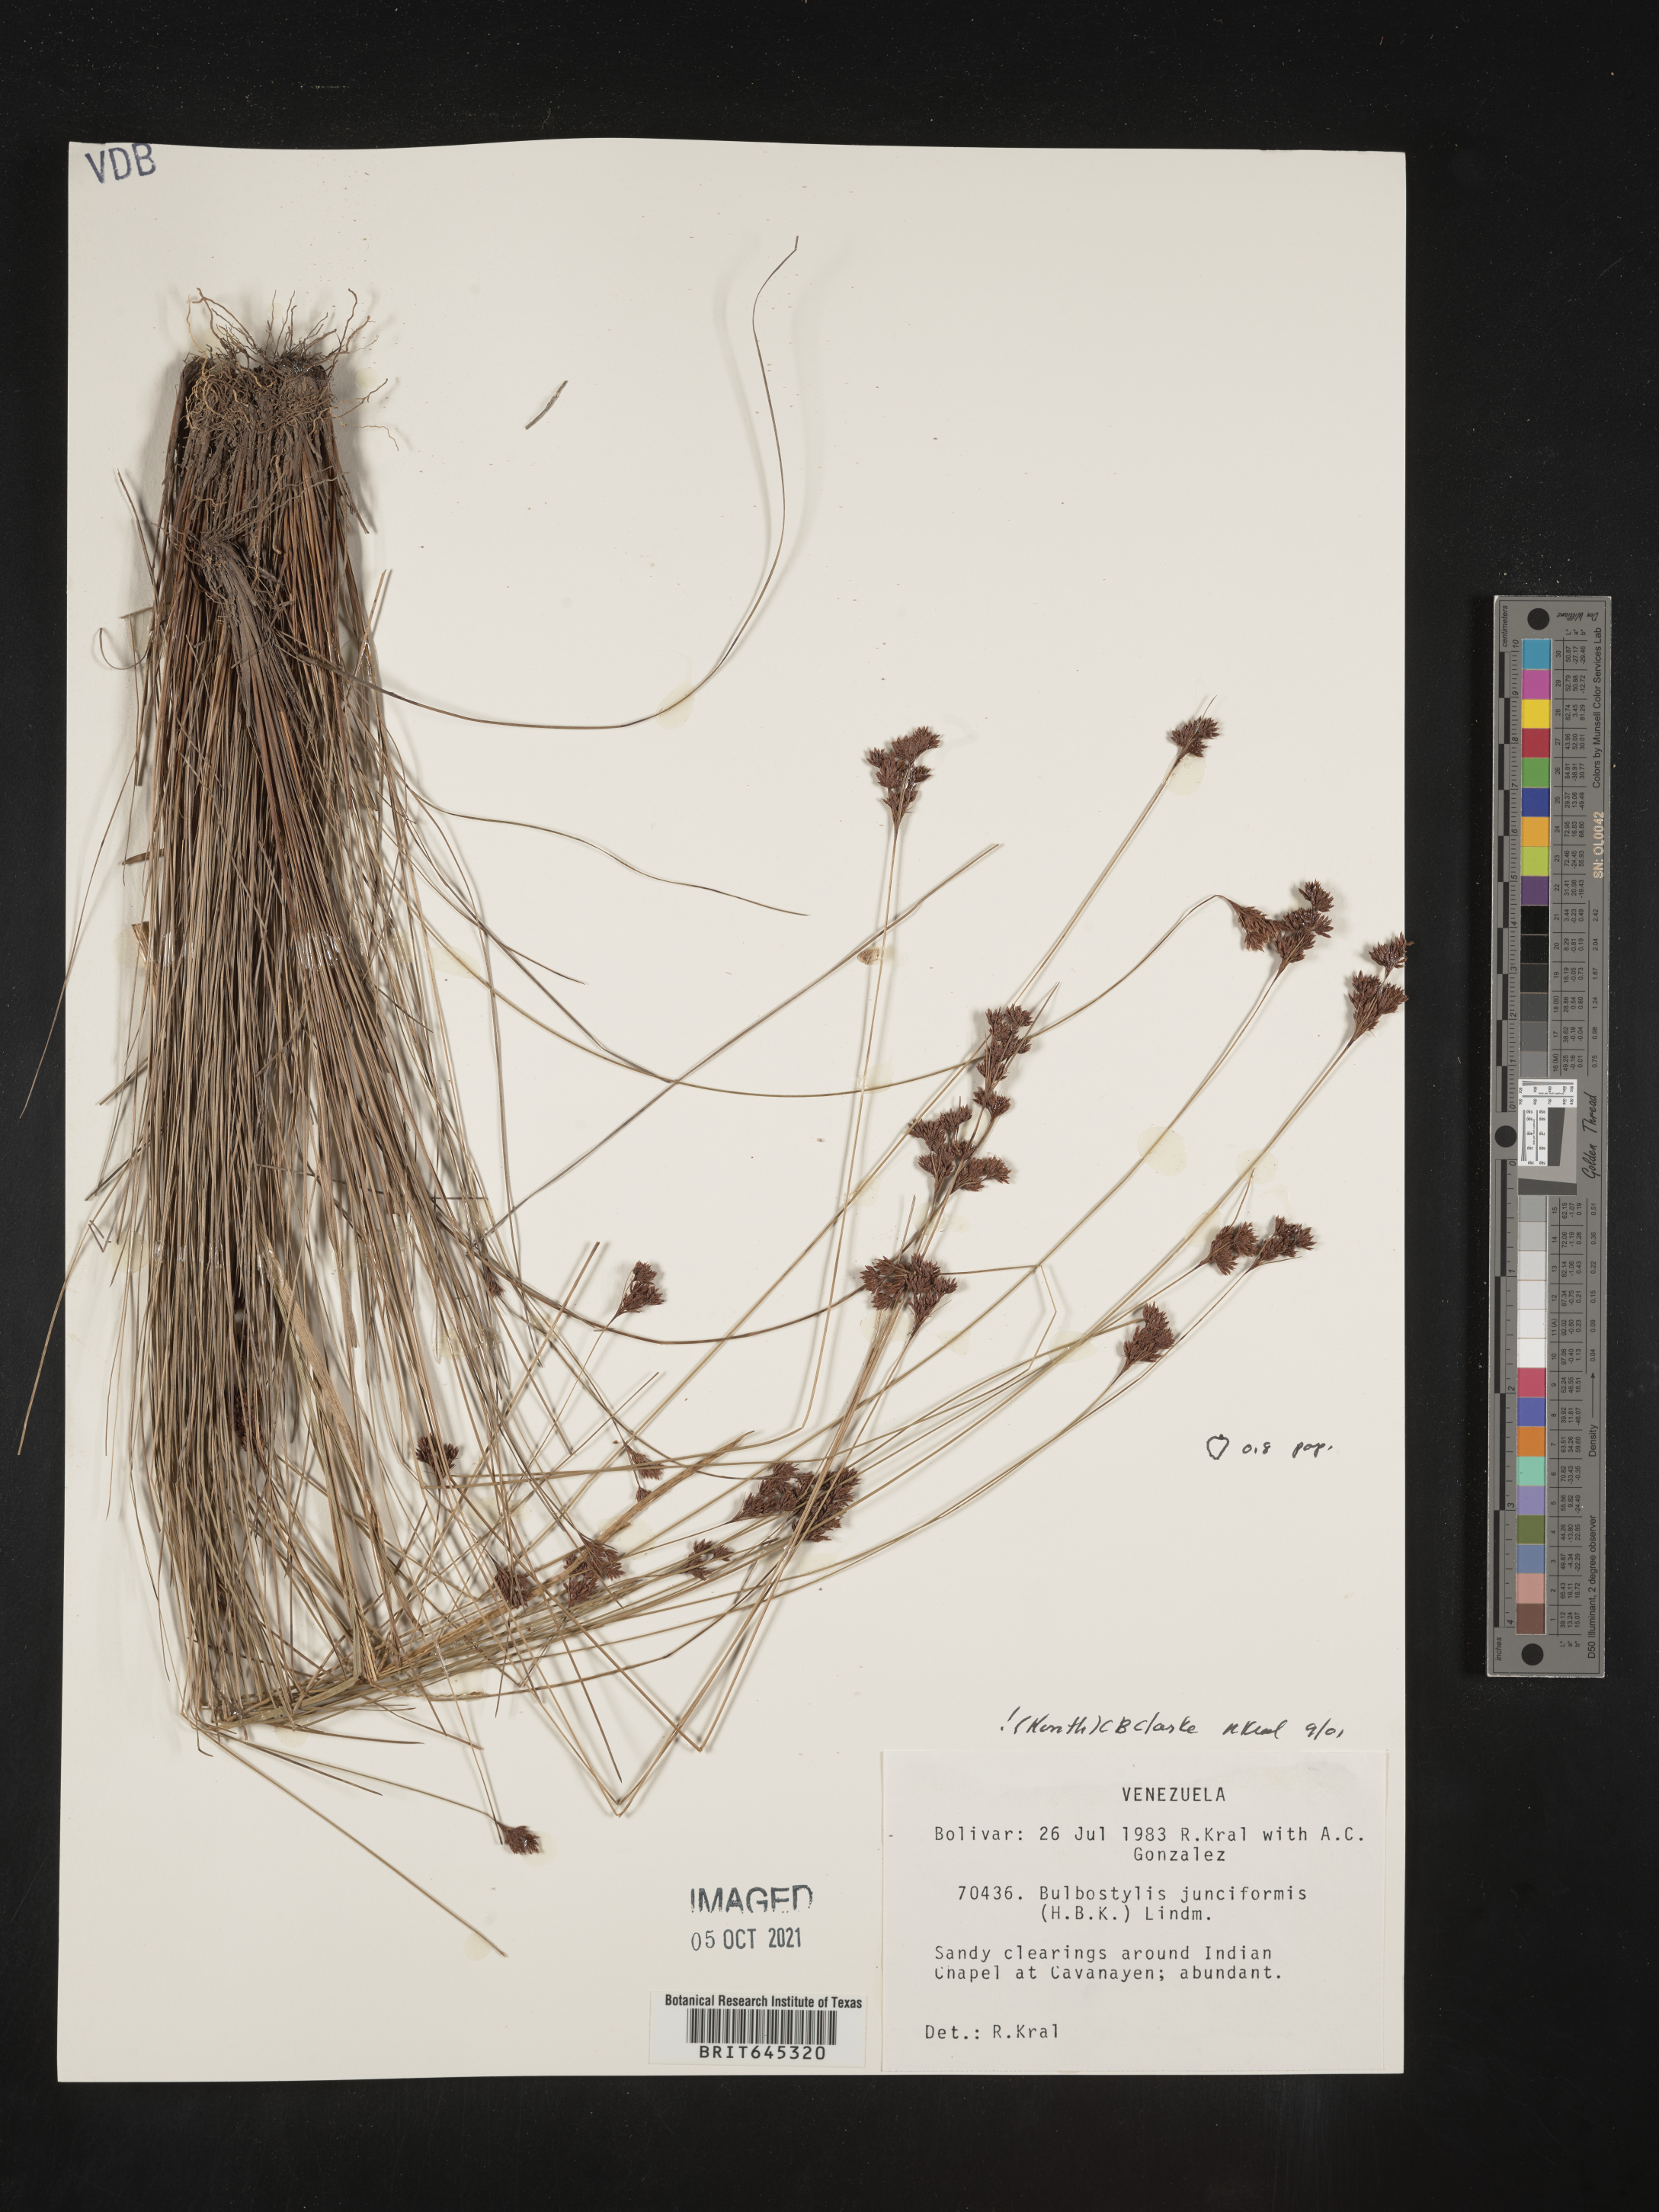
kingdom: Plantae
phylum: Tracheophyta
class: Liliopsida
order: Poales
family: Cyperaceae
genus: Bulbostylis
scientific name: Bulbostylis junciformis
